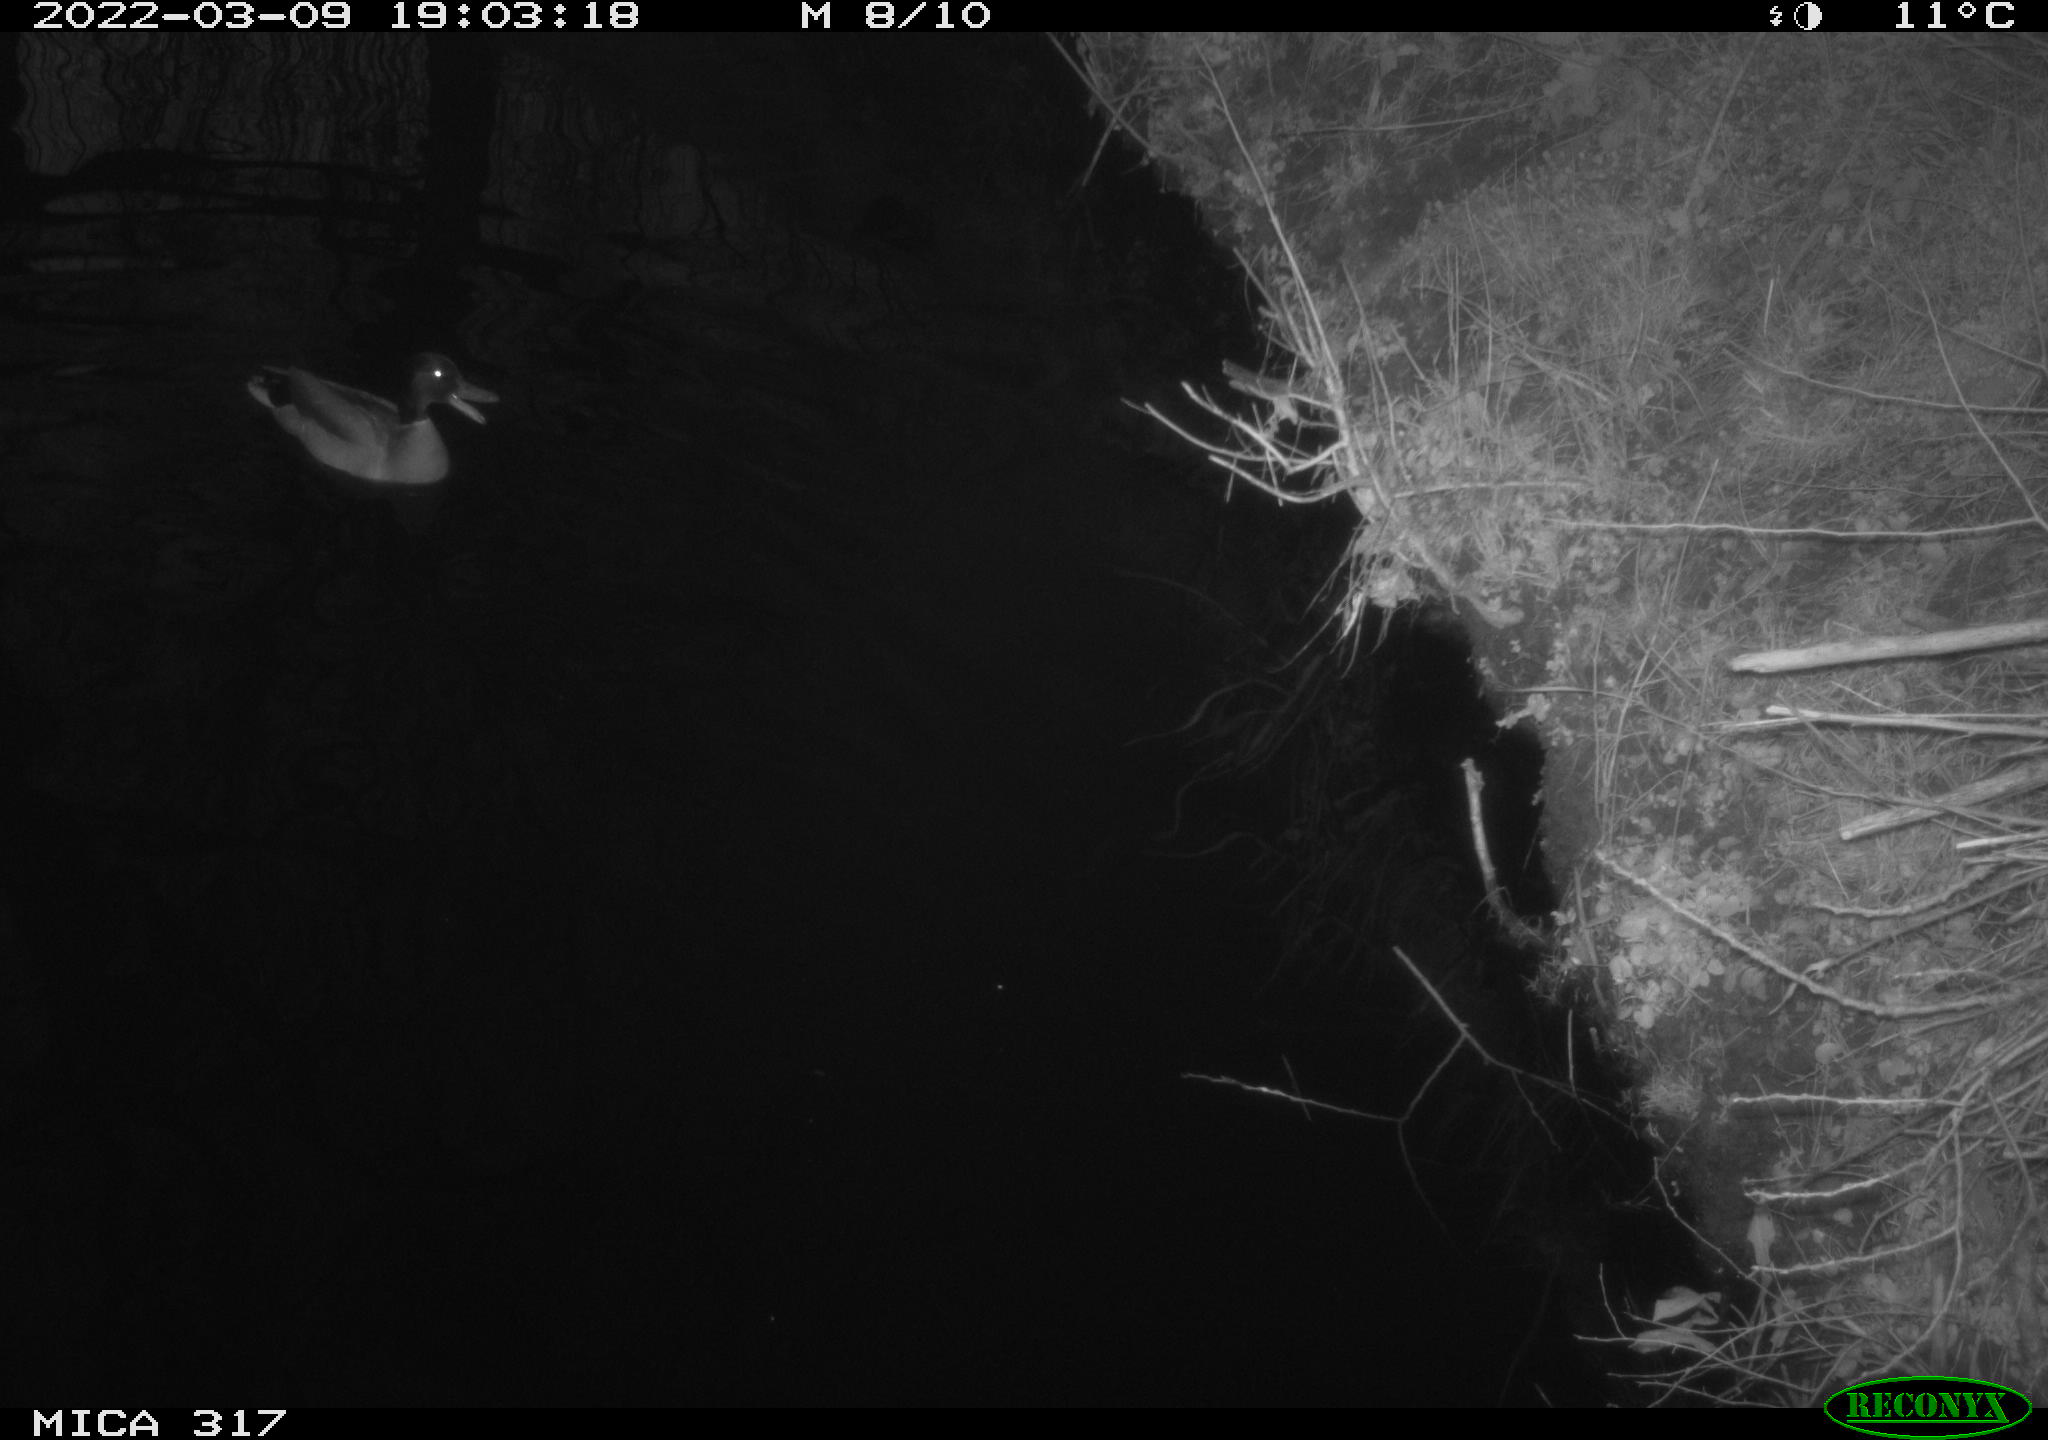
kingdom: Animalia
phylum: Chordata
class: Aves
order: Anseriformes
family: Anatidae
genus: Anas
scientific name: Anas platyrhynchos
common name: Mallard
